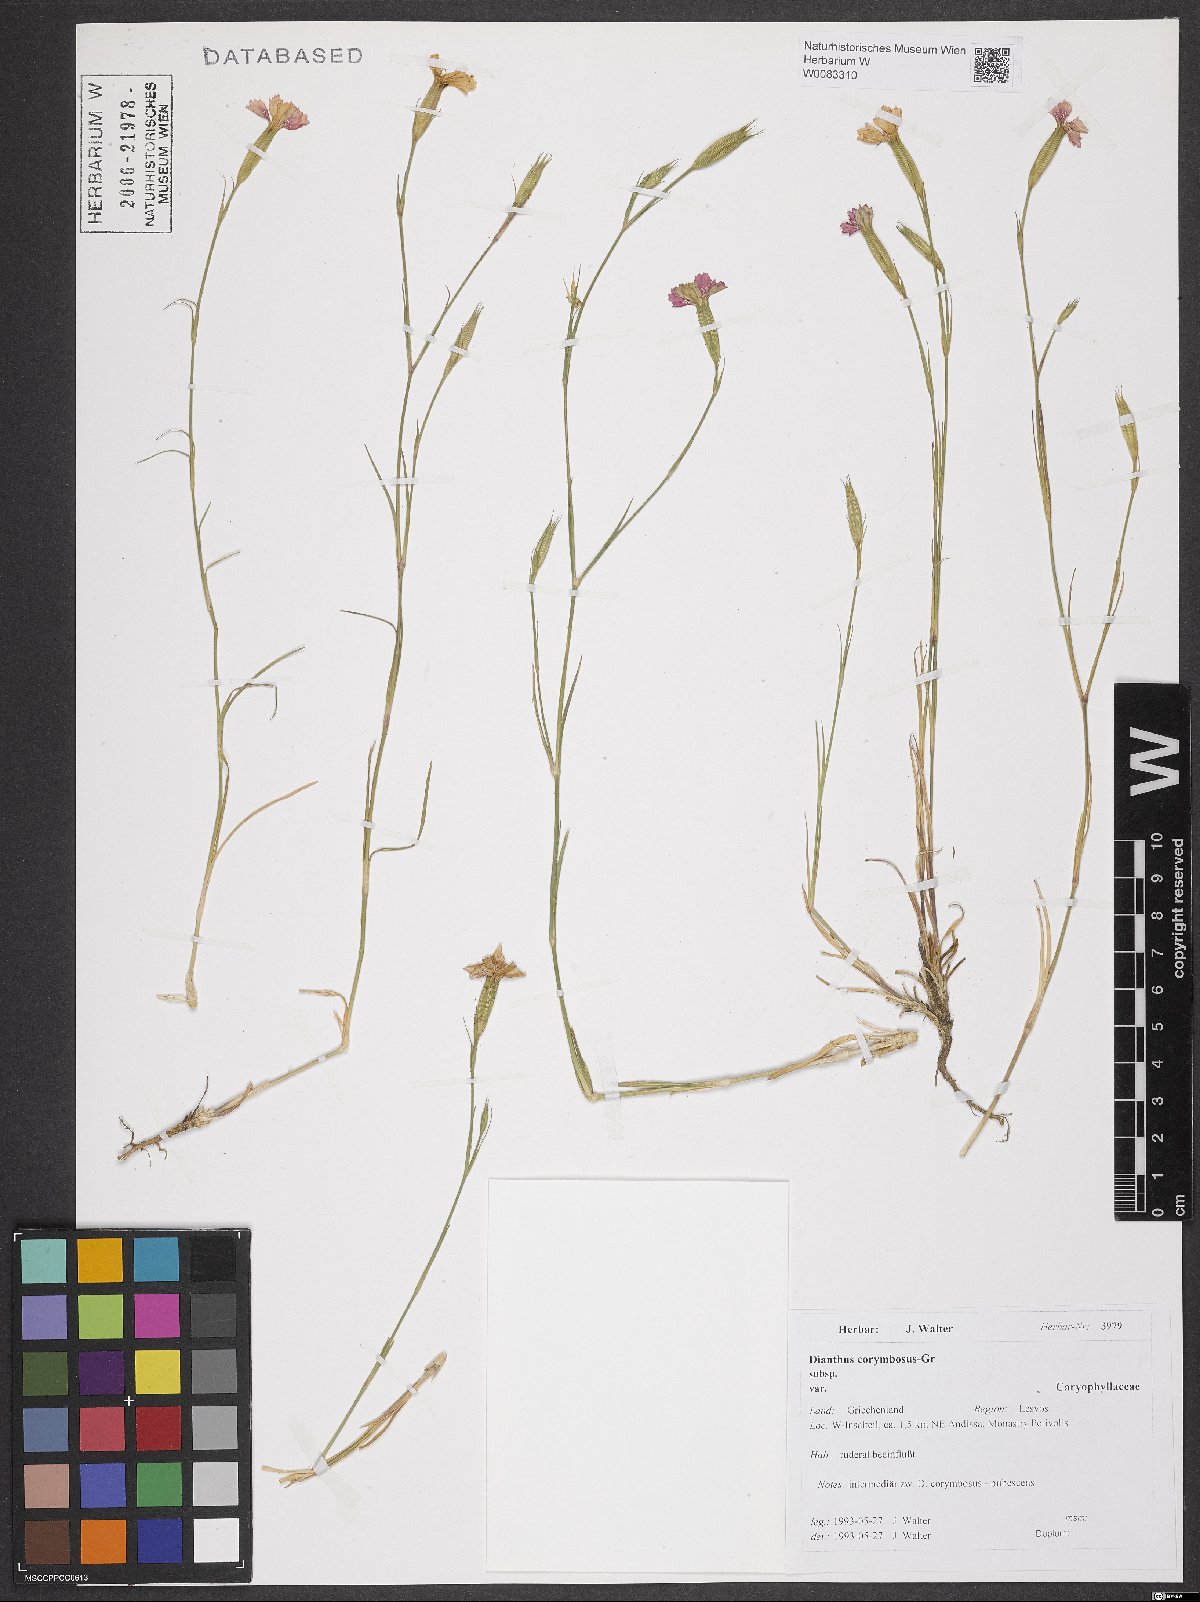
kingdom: Plantae
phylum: Tracheophyta
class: Magnoliopsida
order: Caryophyllales
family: Caryophyllaceae
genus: Dianthus
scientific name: Dianthus corymbosus
